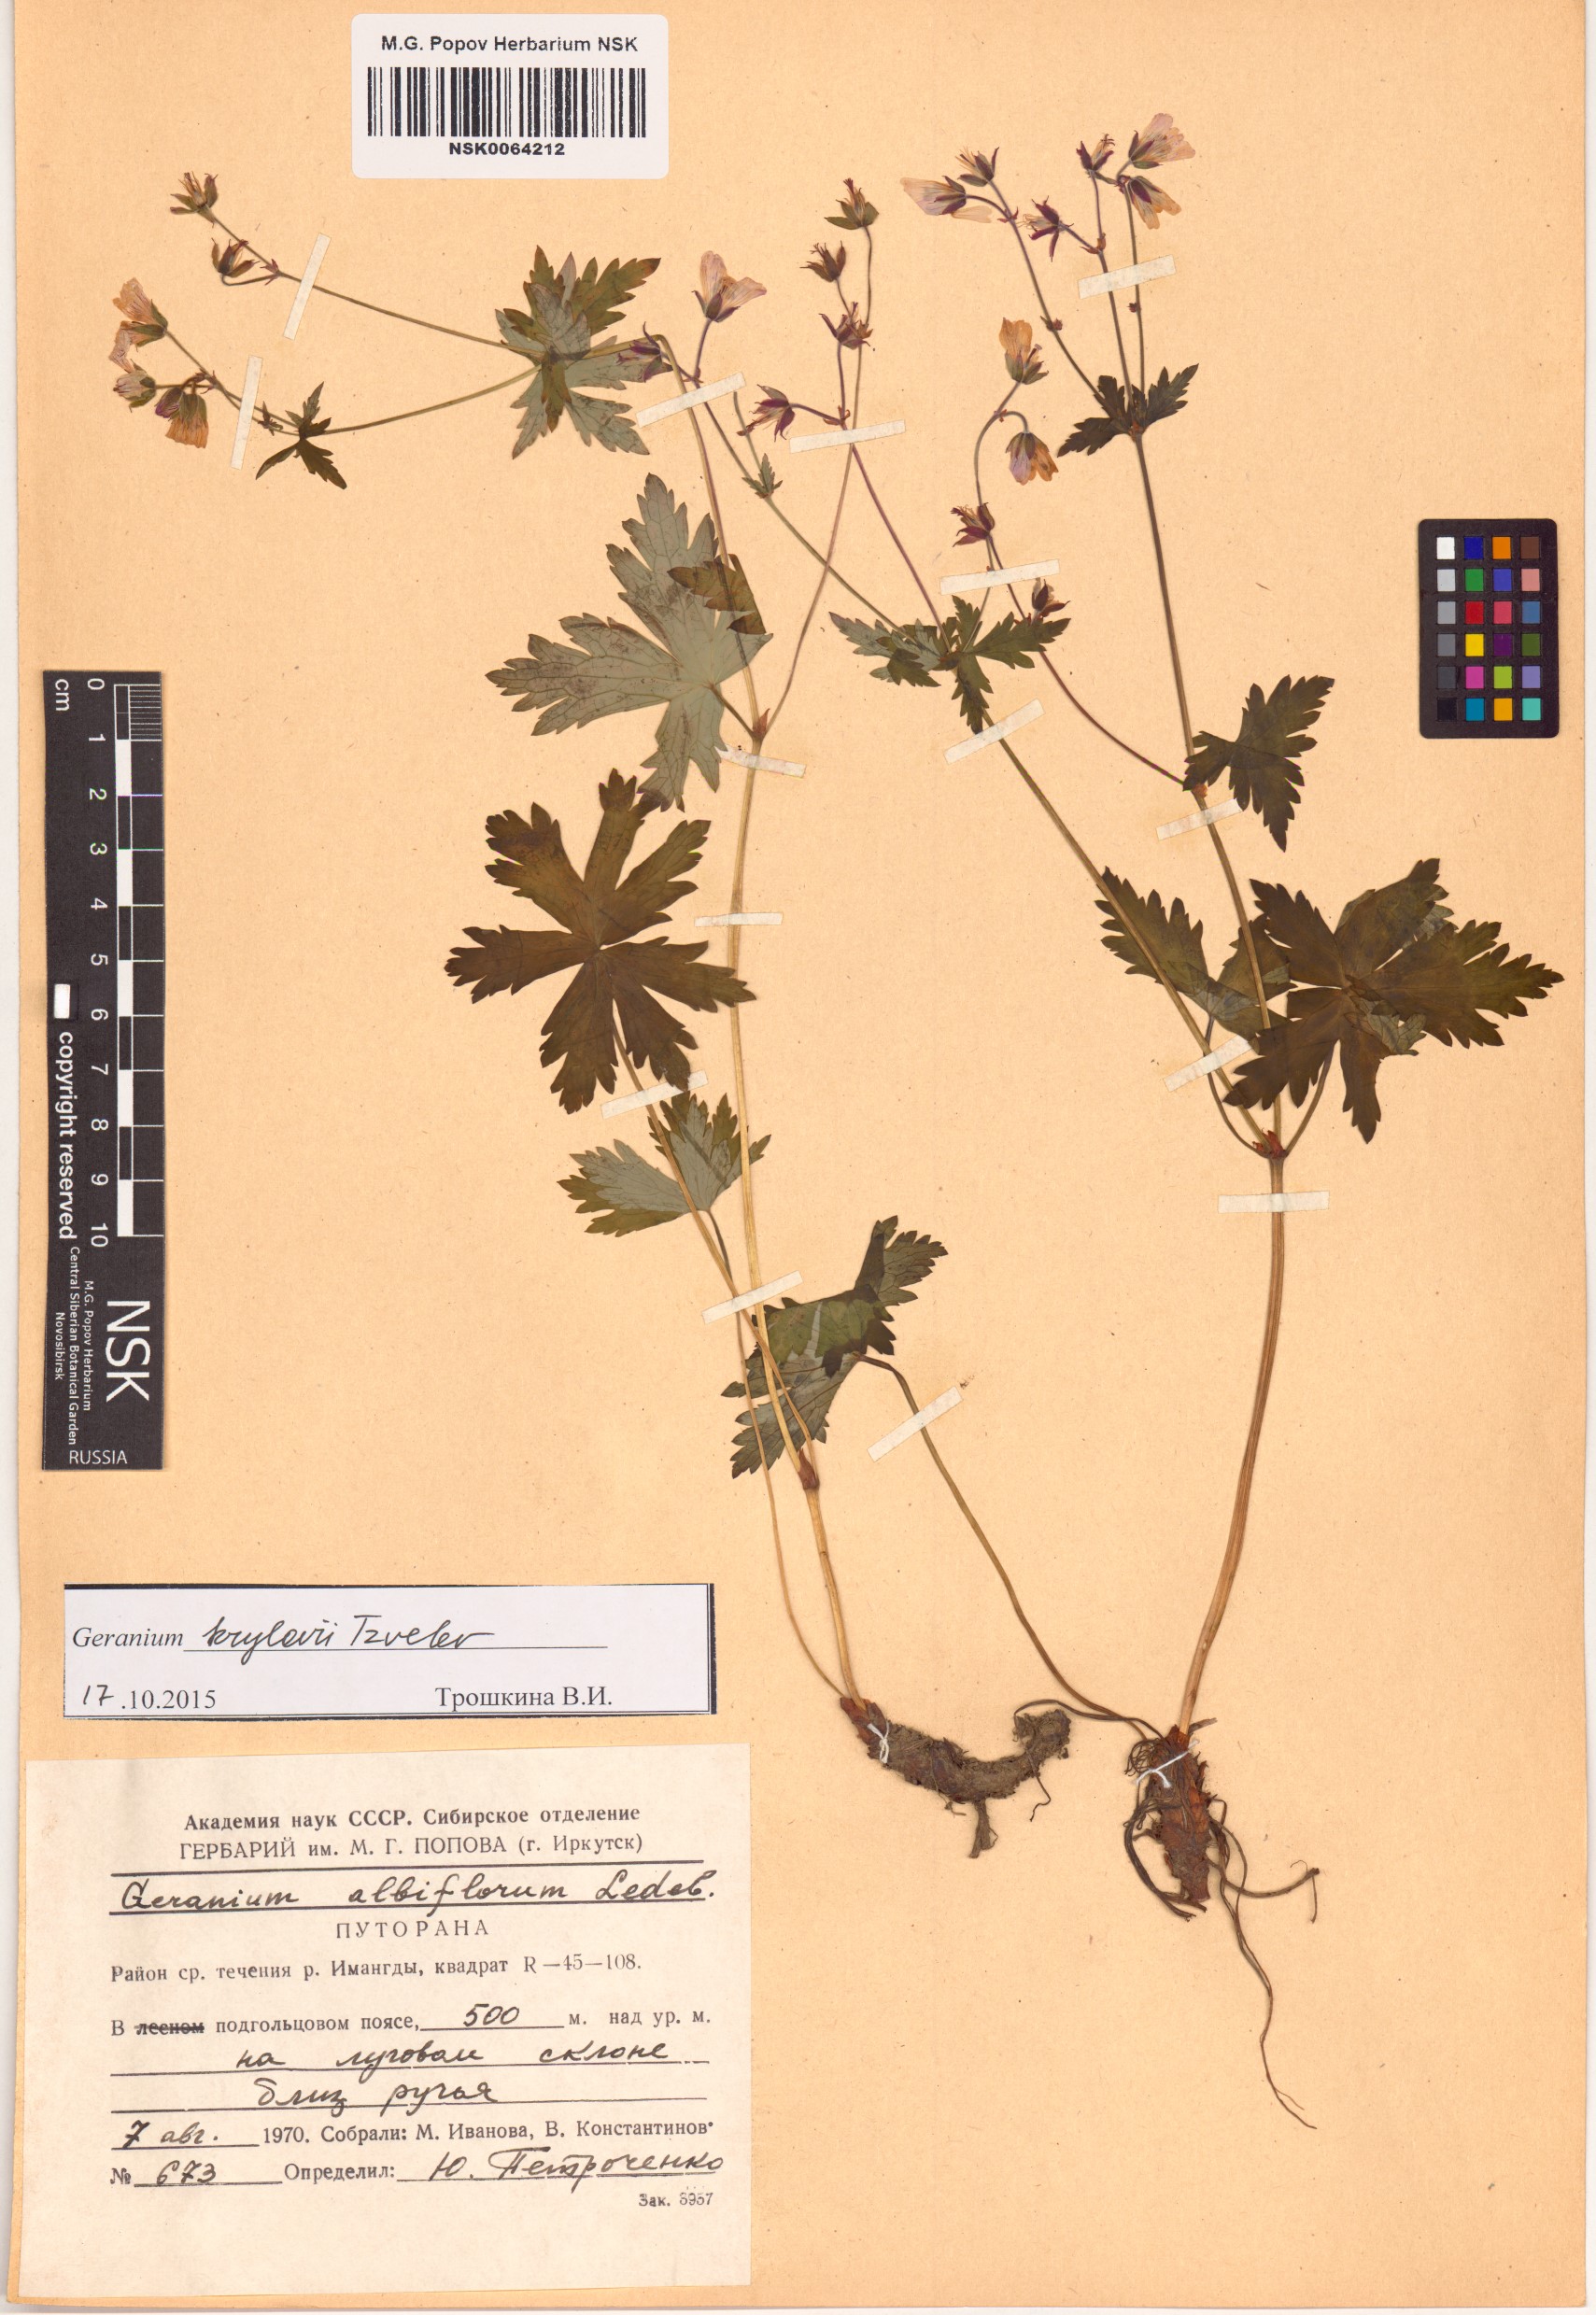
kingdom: Plantae
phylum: Tracheophyta
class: Magnoliopsida
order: Geraniales
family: Geraniaceae
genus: Geranium
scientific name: Geranium sylvaticum
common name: Wood crane's-bill
